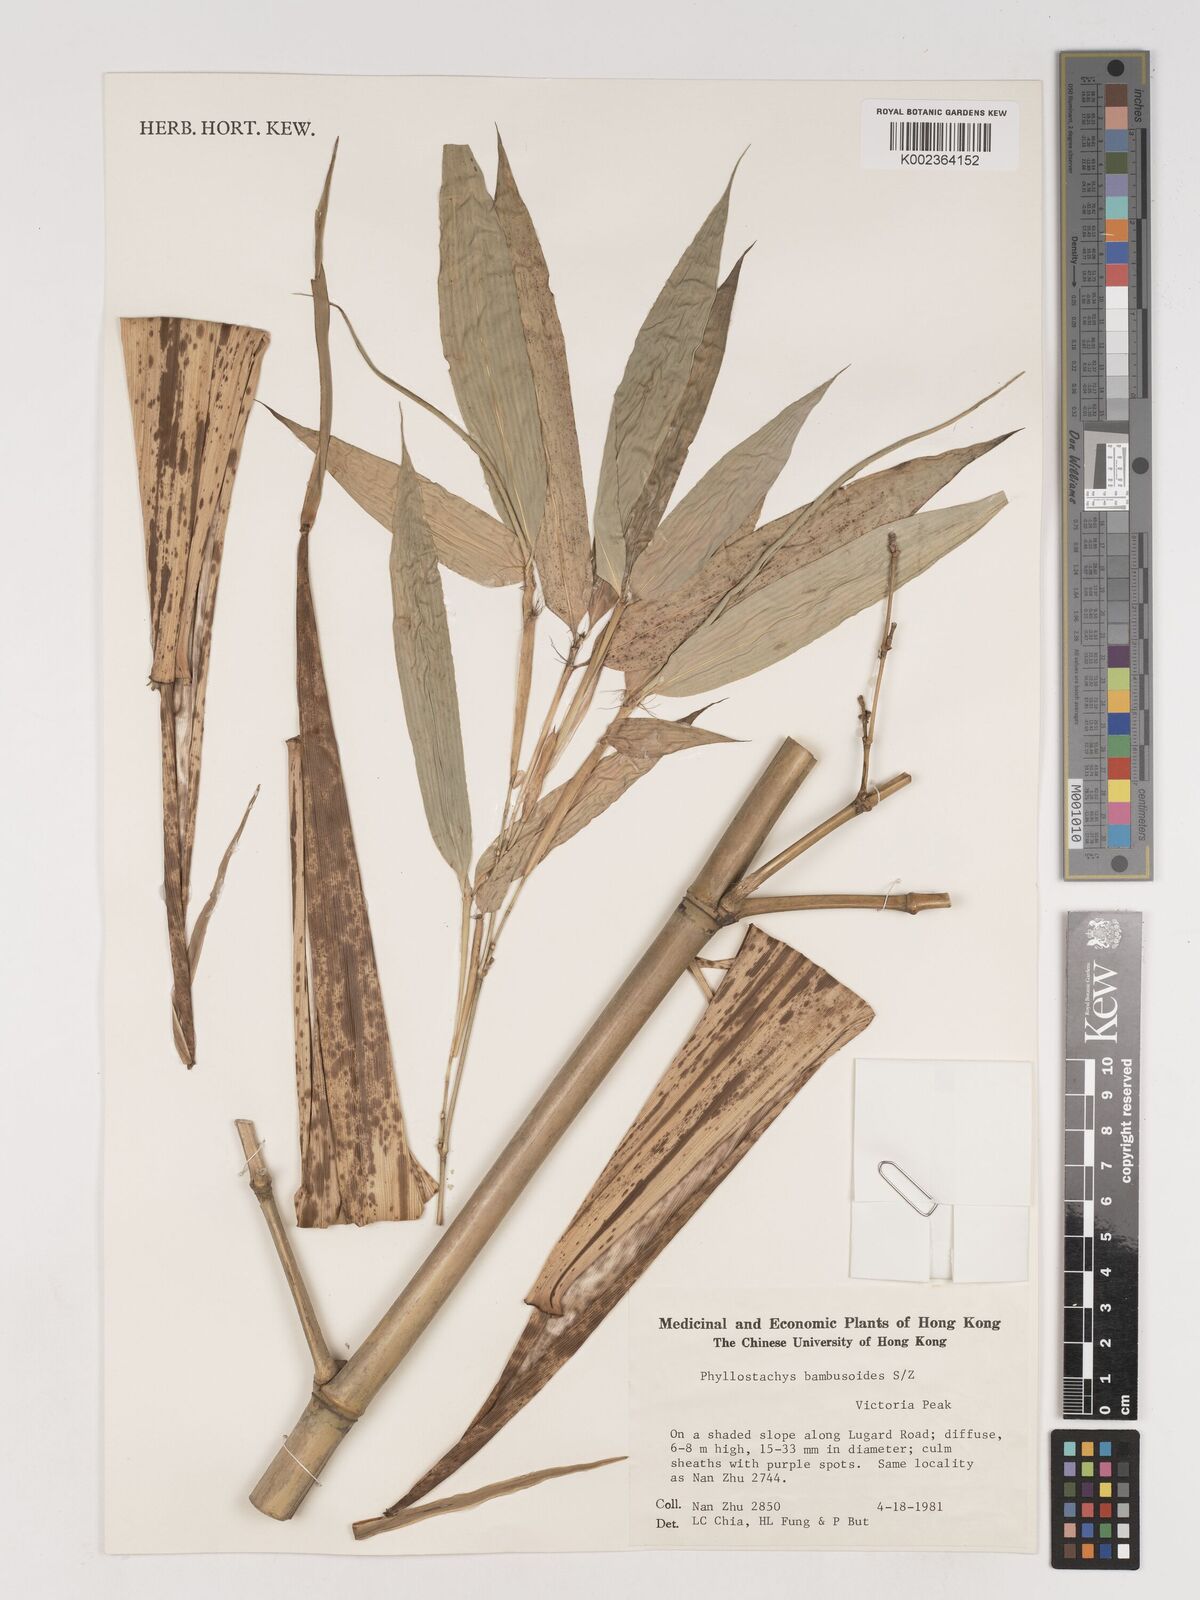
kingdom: Plantae
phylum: Tracheophyta
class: Liliopsida
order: Poales
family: Poaceae
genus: Phyllostachys
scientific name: Phyllostachys reticulata
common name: Bamboo
